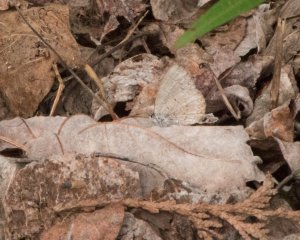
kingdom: Animalia
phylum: Arthropoda
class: Insecta
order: Lepidoptera
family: Lycaenidae
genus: Celastrina
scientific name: Celastrina lucia
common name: Northern Spring Azure
